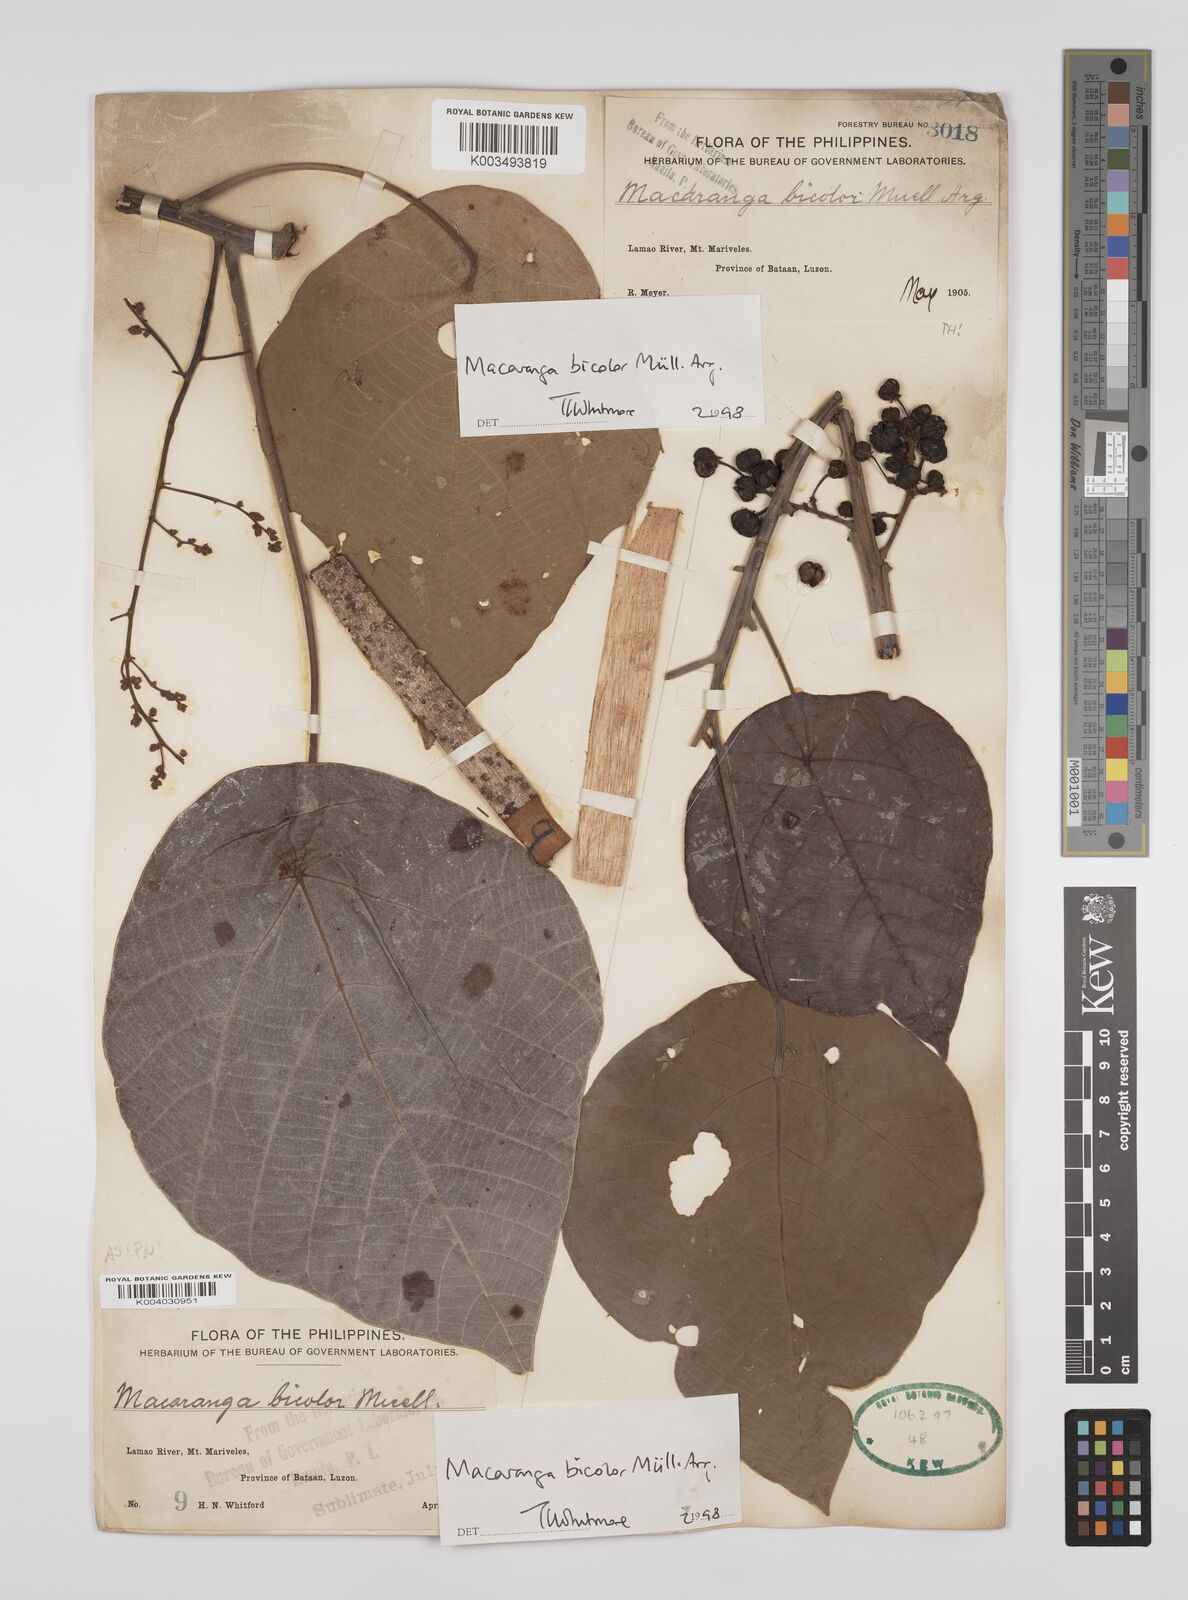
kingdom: Plantae
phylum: Tracheophyta
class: Magnoliopsida
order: Malpighiales
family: Euphorbiaceae
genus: Macaranga
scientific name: Macaranga bicolor
